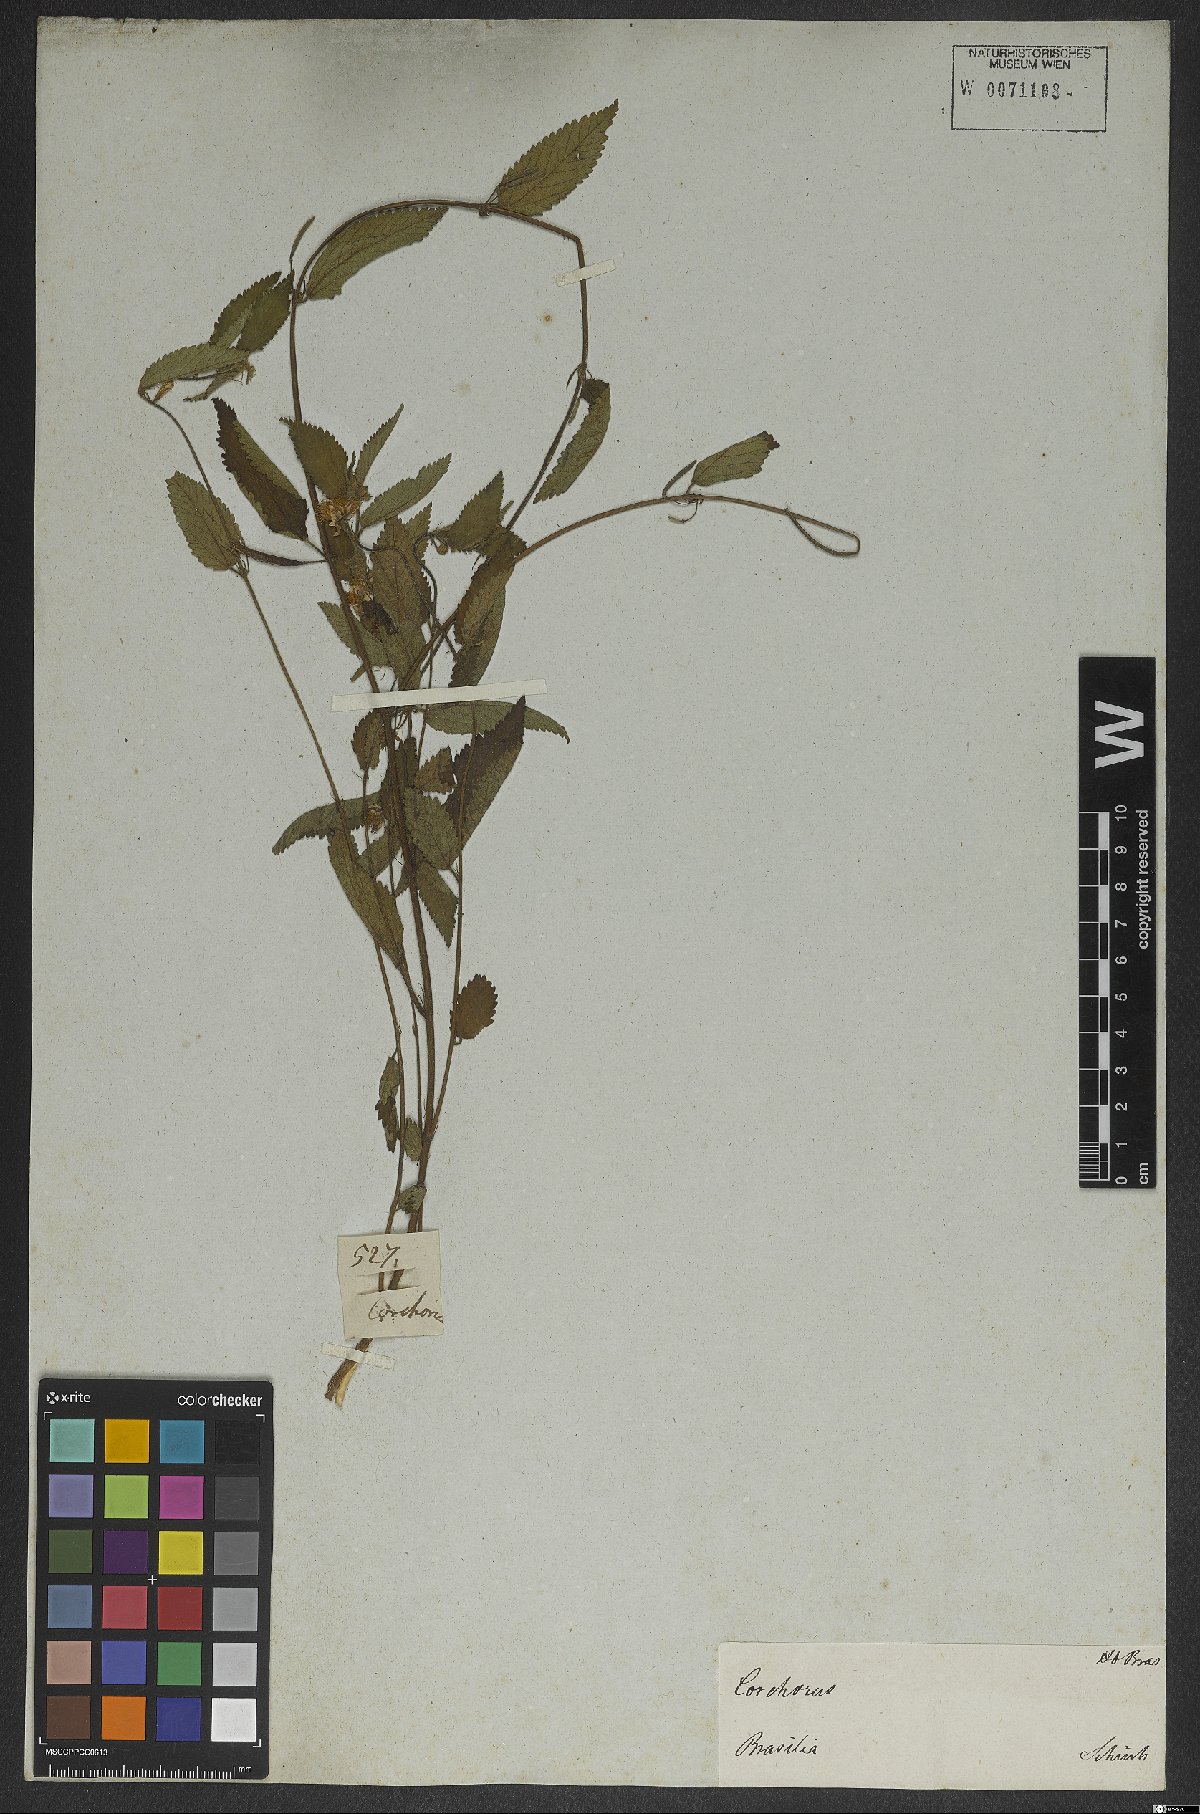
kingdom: Plantae
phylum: Tracheophyta
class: Magnoliopsida
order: Malvales
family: Malvaceae
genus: Corchorus
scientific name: Corchorus hirtus
